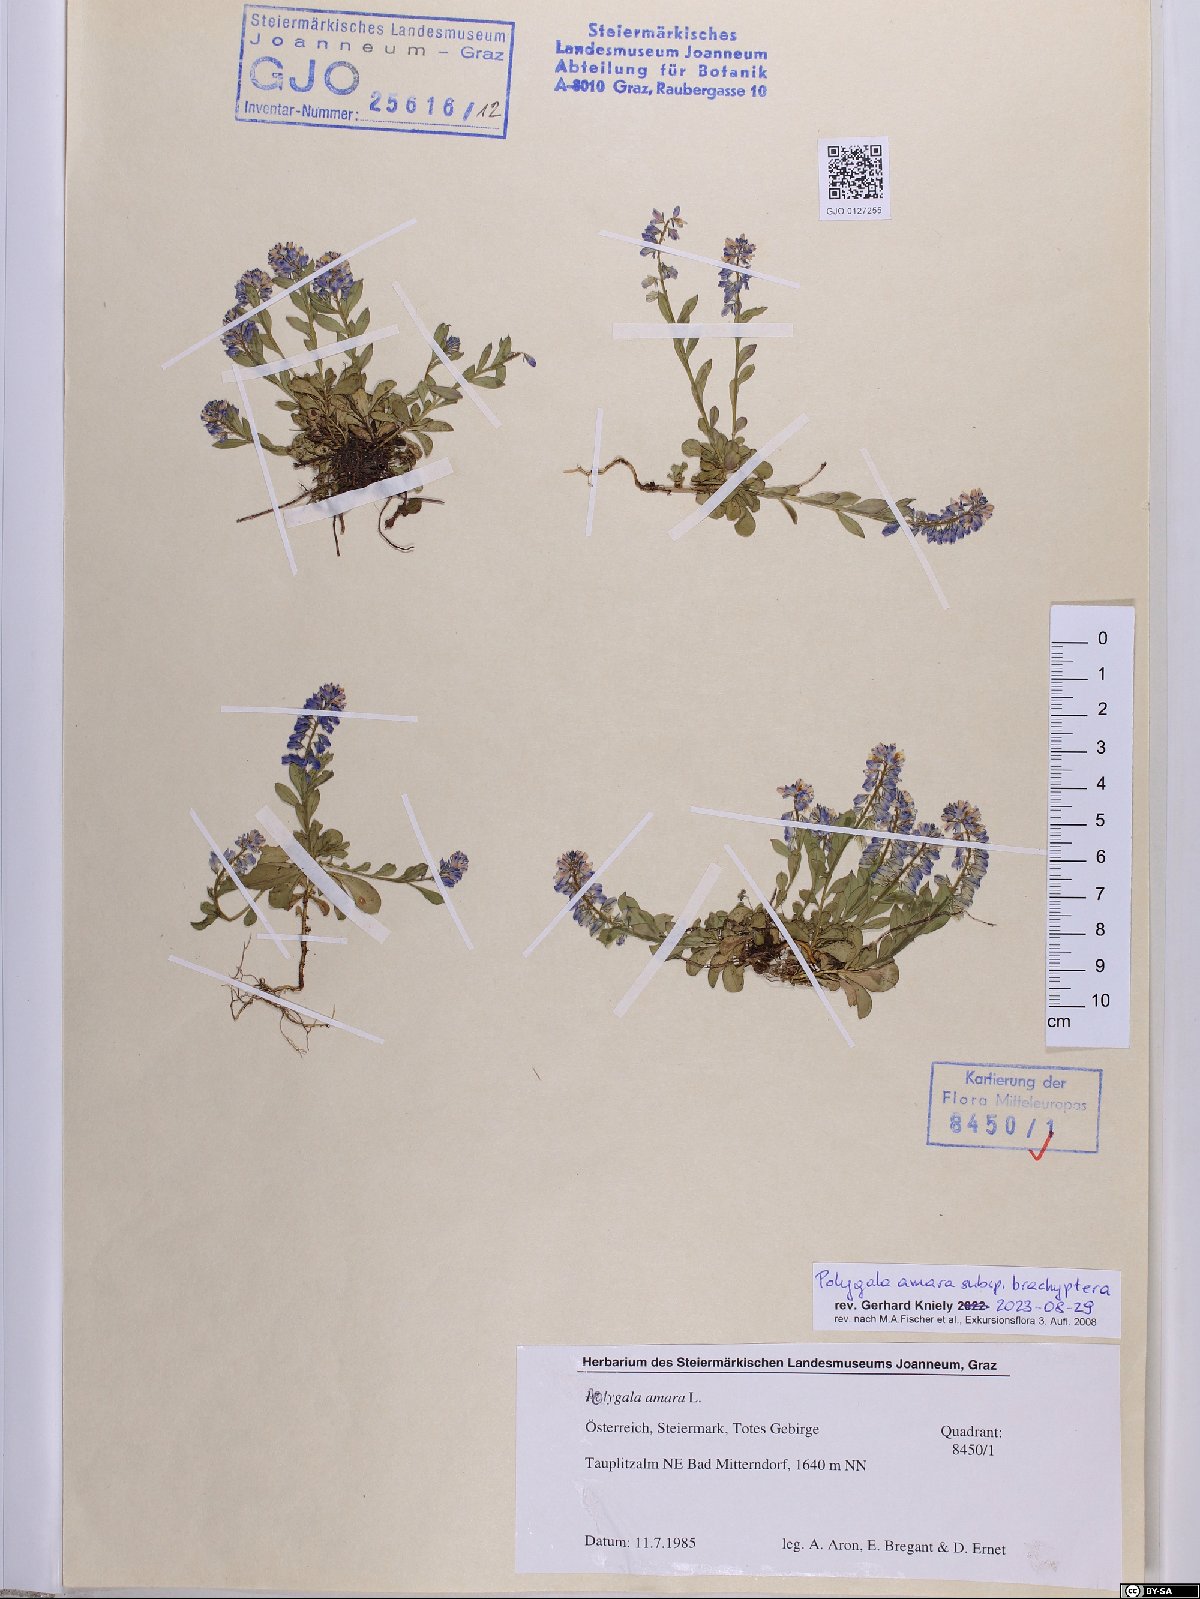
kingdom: Plantae
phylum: Tracheophyta
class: Magnoliopsida
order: Fabales
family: Polygalaceae
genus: Polygala
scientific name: Polygala amara
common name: Milkwort
